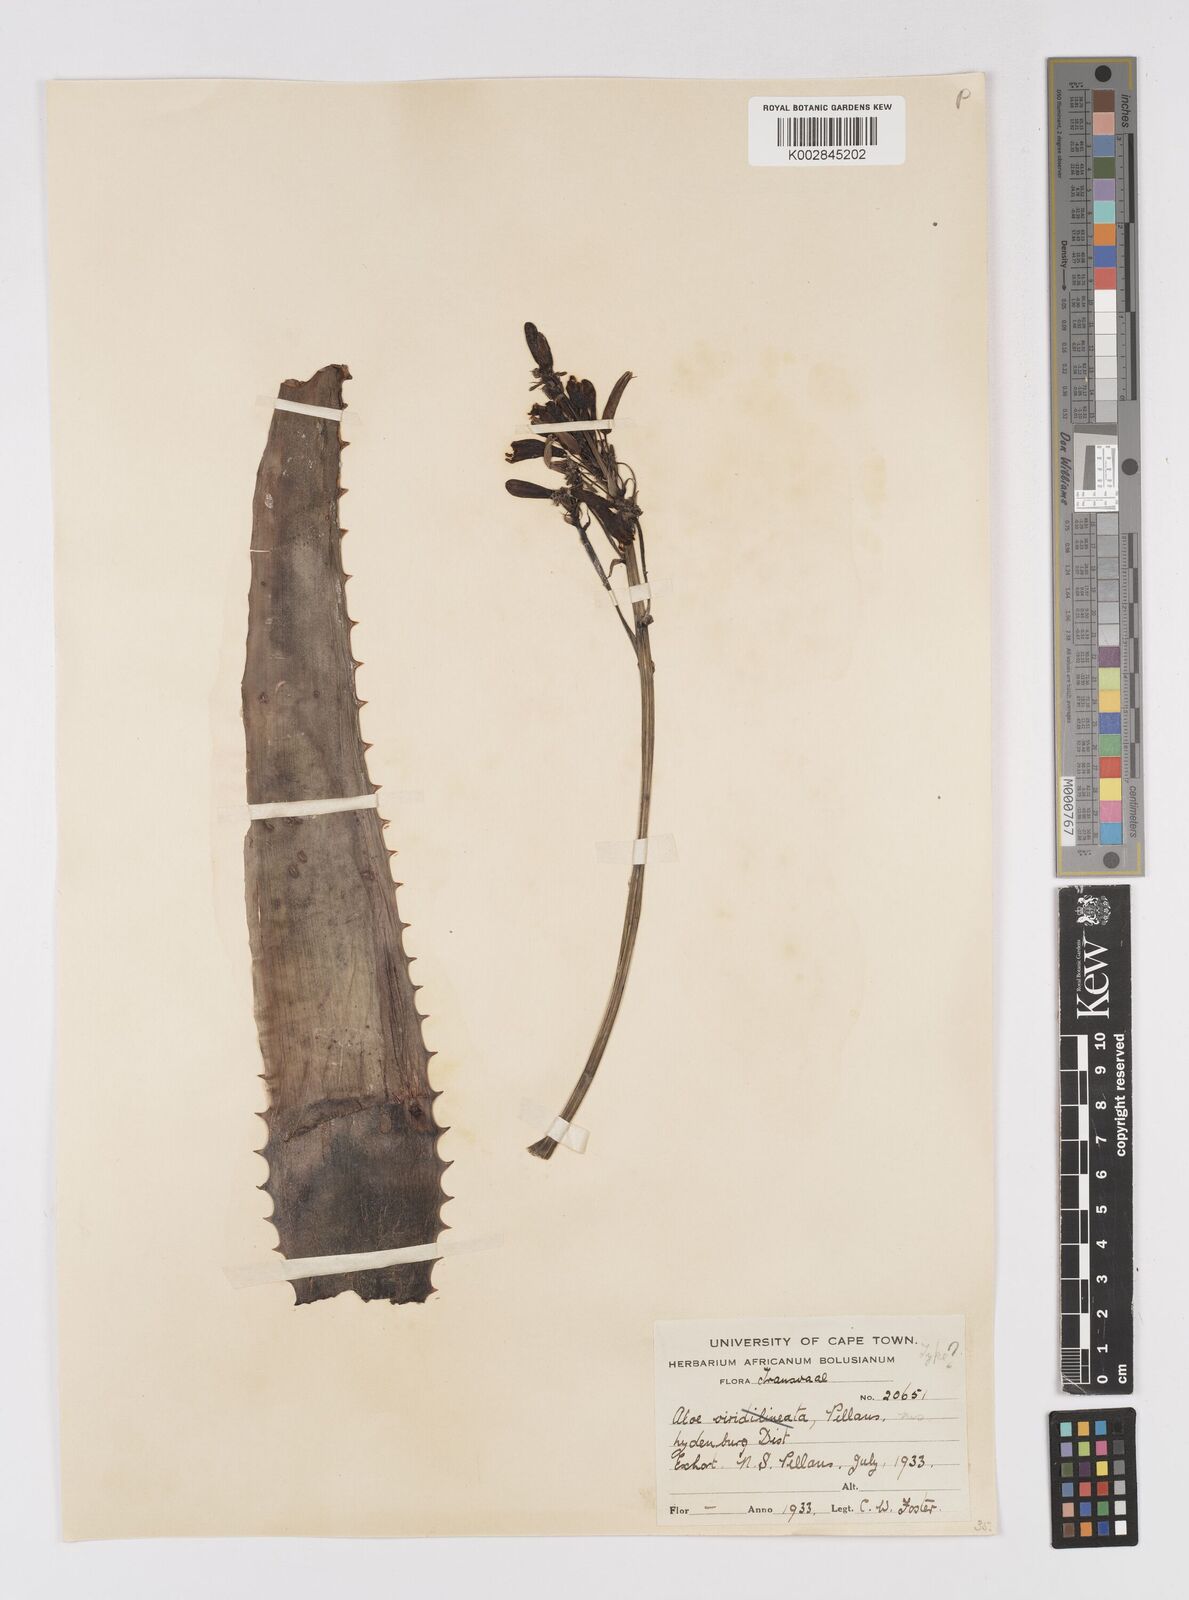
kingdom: Plantae
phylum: Tracheophyta
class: Liliopsida
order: Asparagales
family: Asphodelaceae
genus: Aloe
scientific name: Aloe burgersfortensis
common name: Burgersfort aloe
